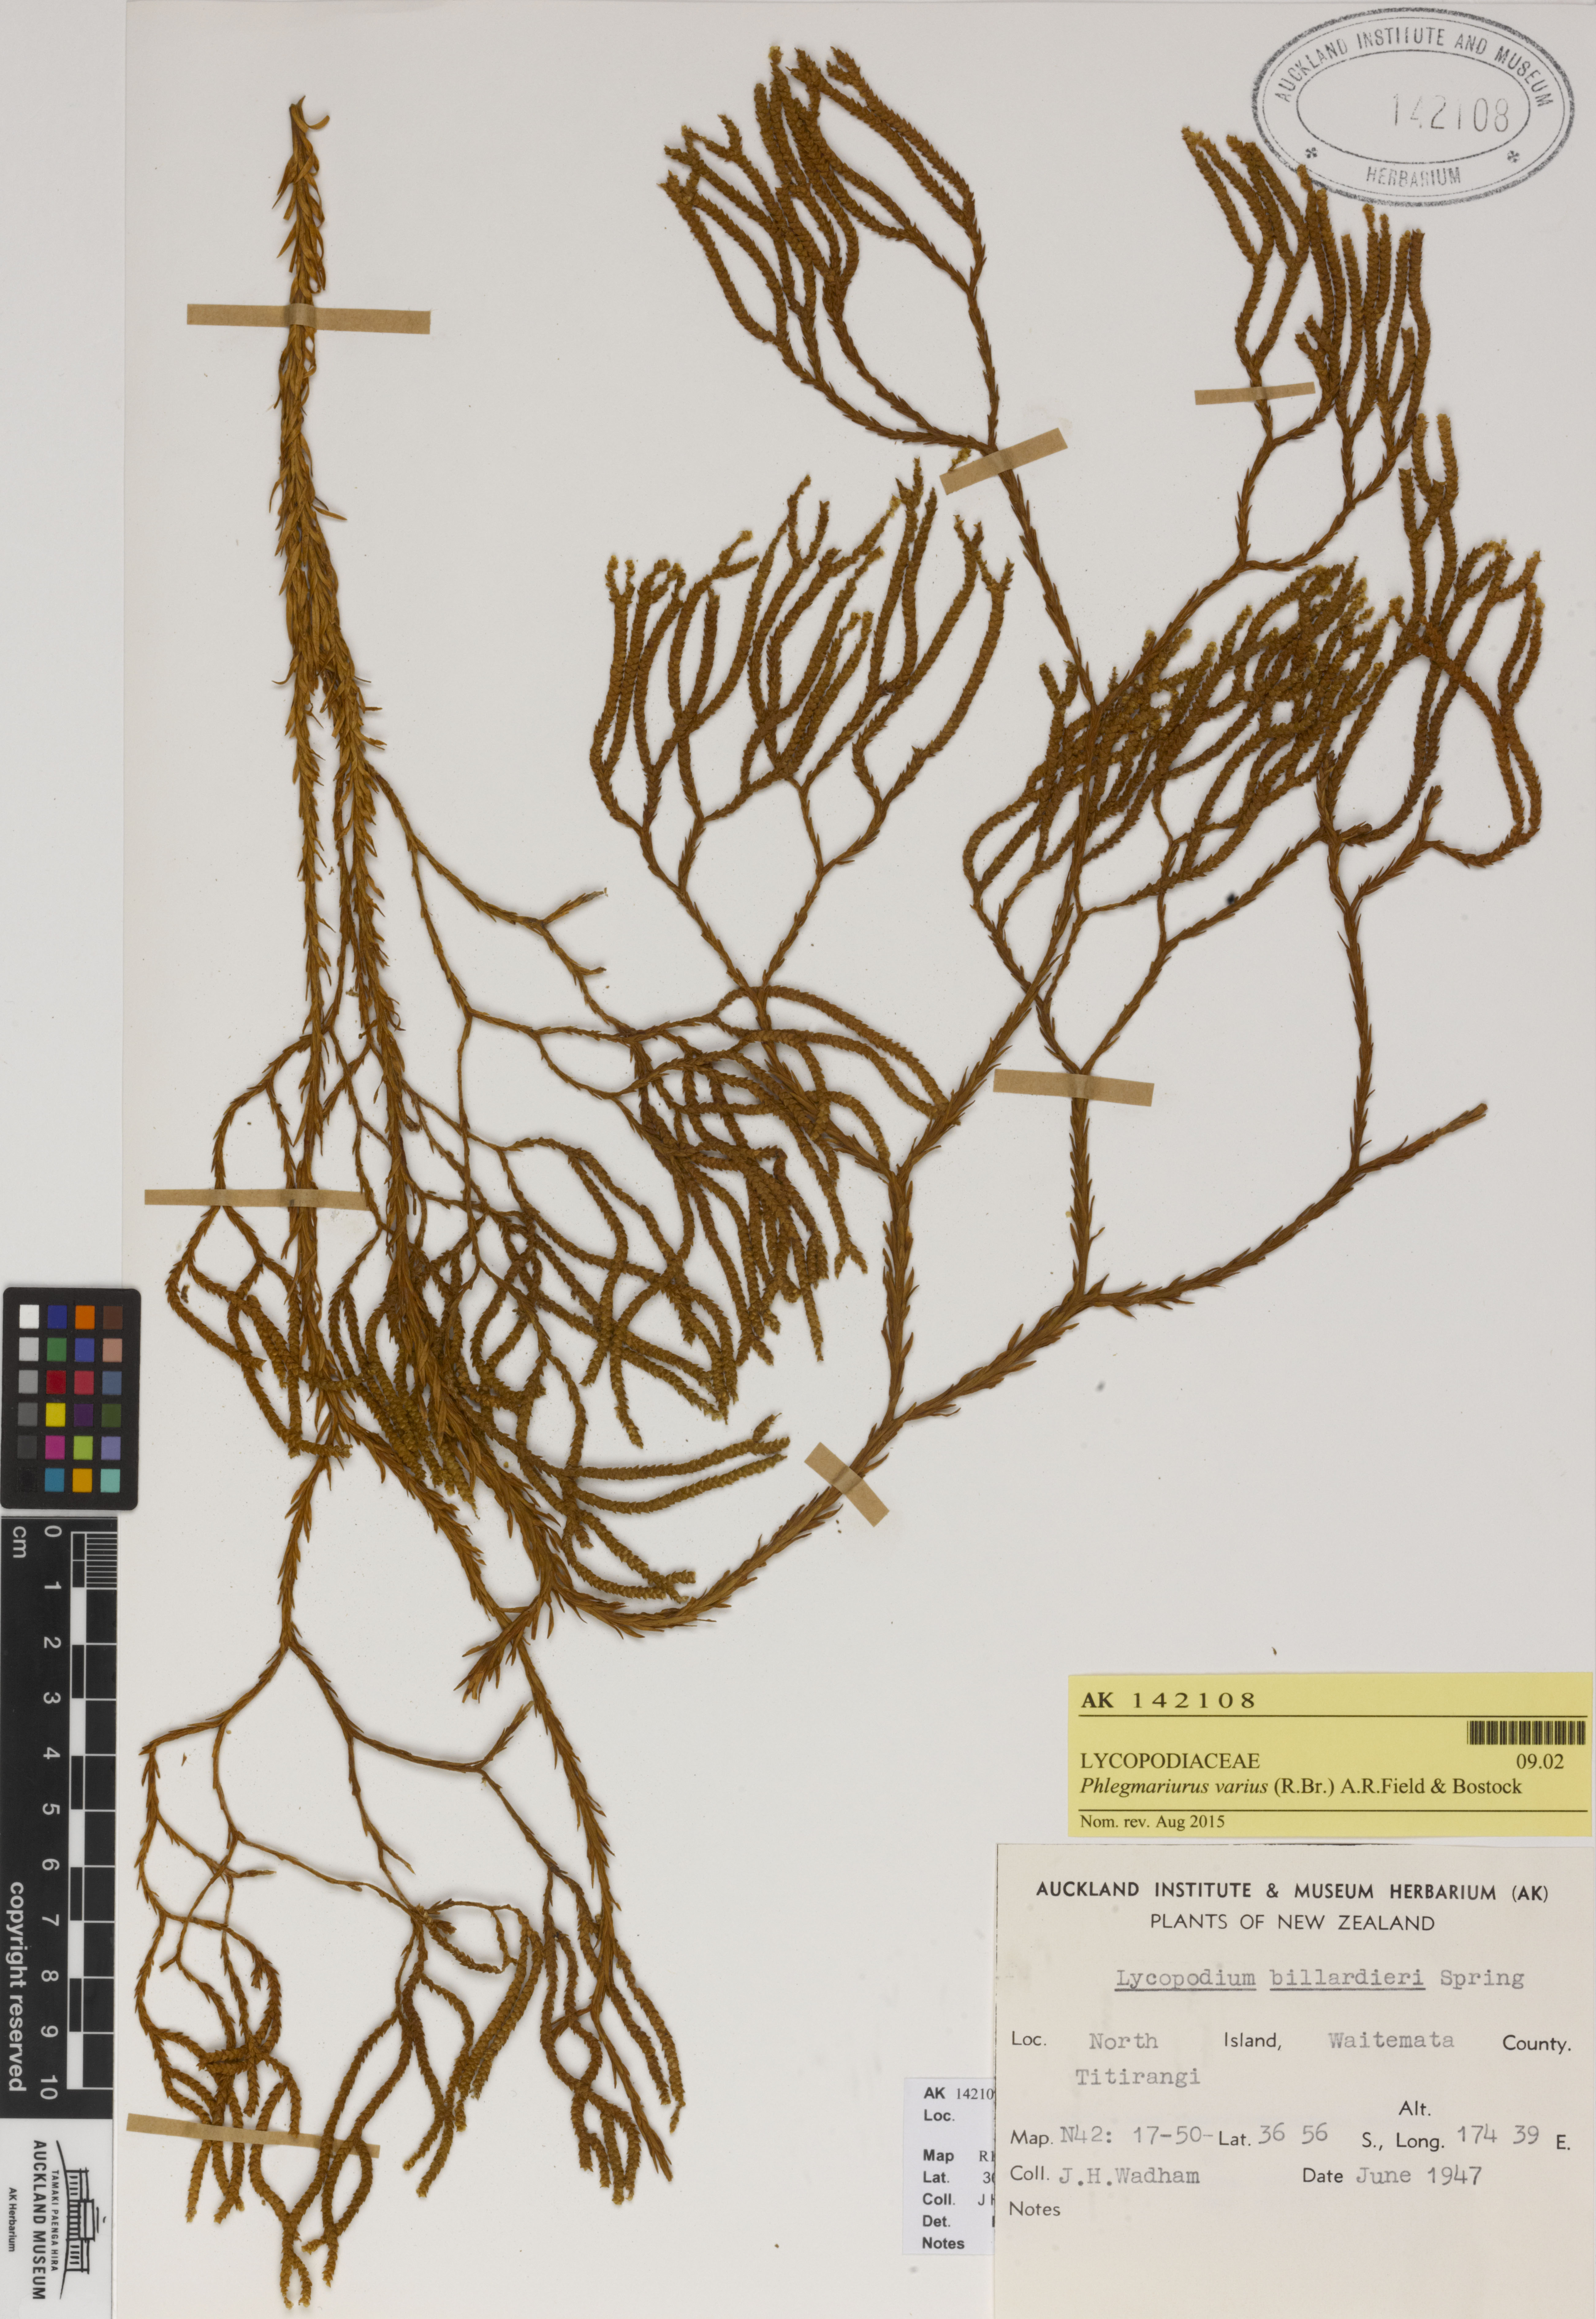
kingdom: Plantae
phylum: Tracheophyta
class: Lycopodiopsida
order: Lycopodiales
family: Lycopodiaceae
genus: Phlegmariurus
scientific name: Phlegmariurus billardierei
